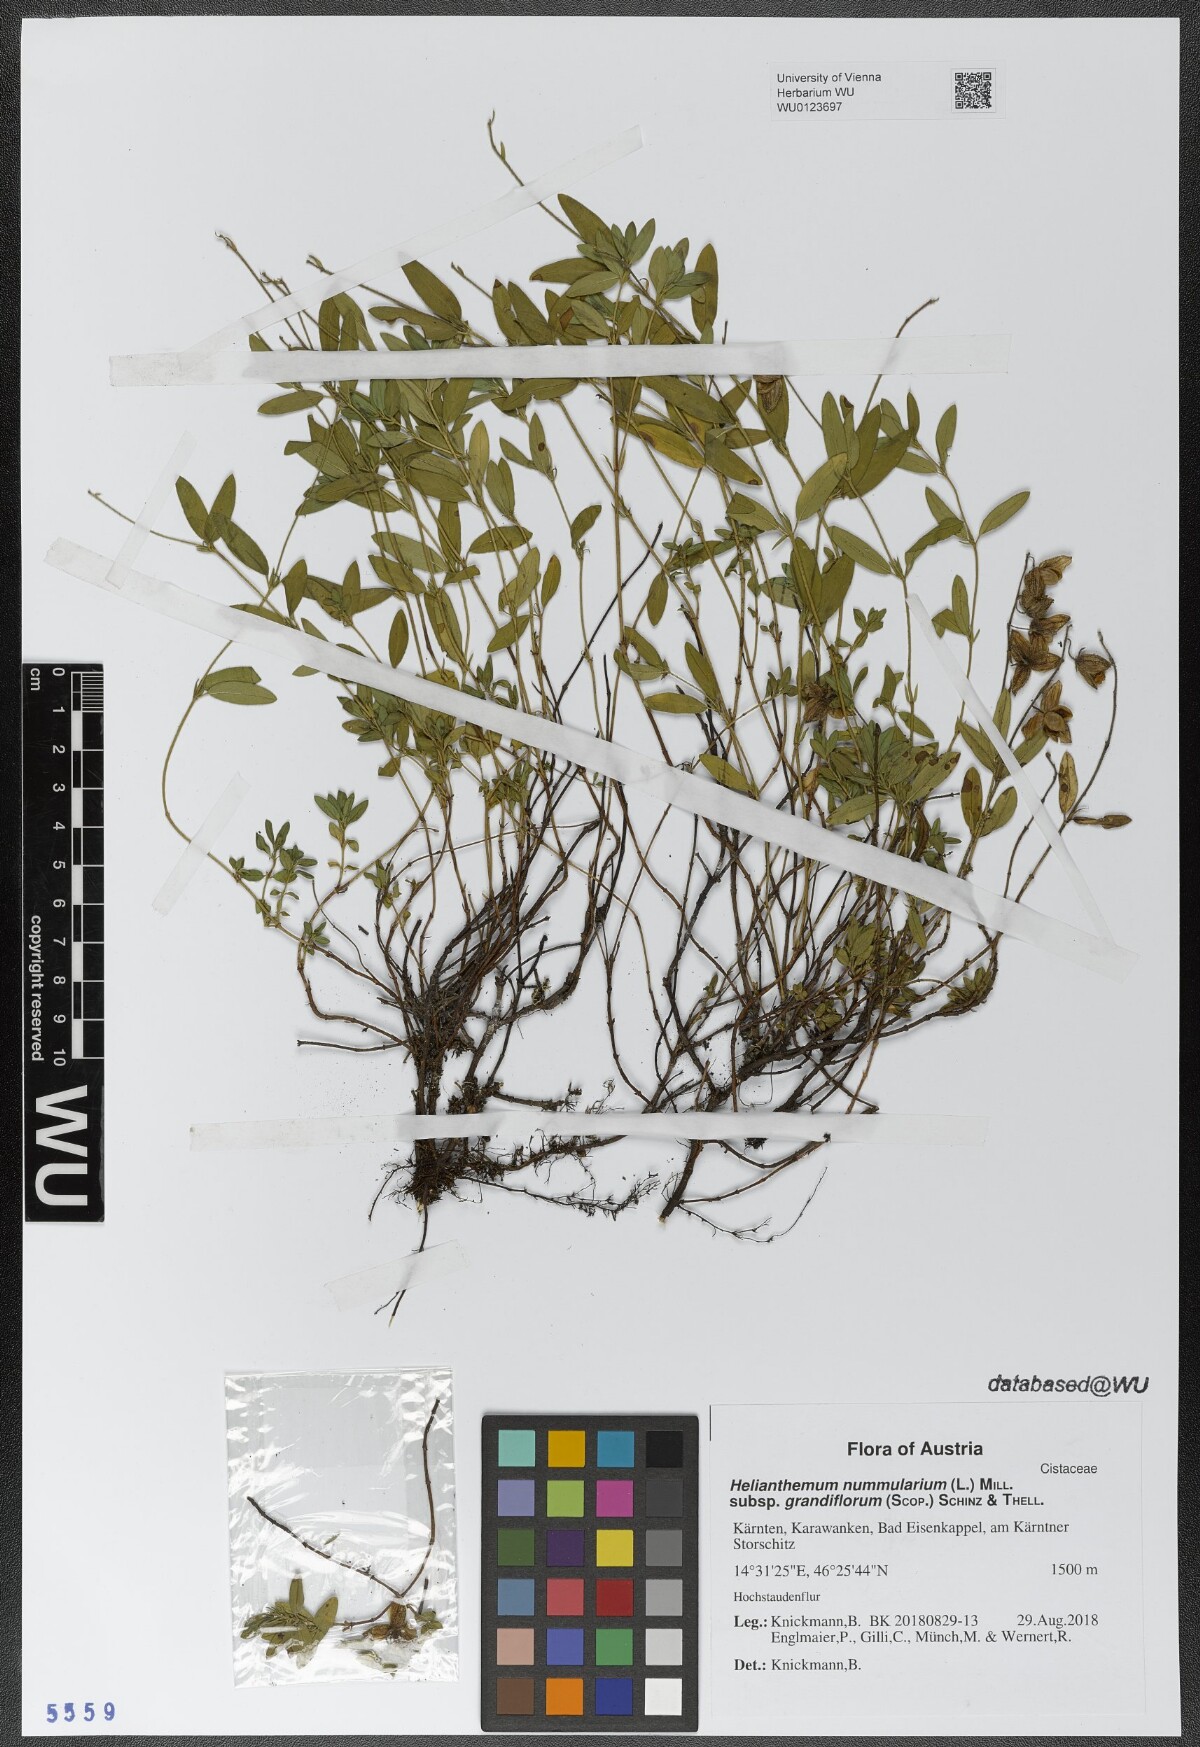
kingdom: Plantae
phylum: Tracheophyta
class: Magnoliopsida
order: Malvales
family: Cistaceae
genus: Helianthemum
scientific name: Helianthemum nummularium
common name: Common rock-rose
